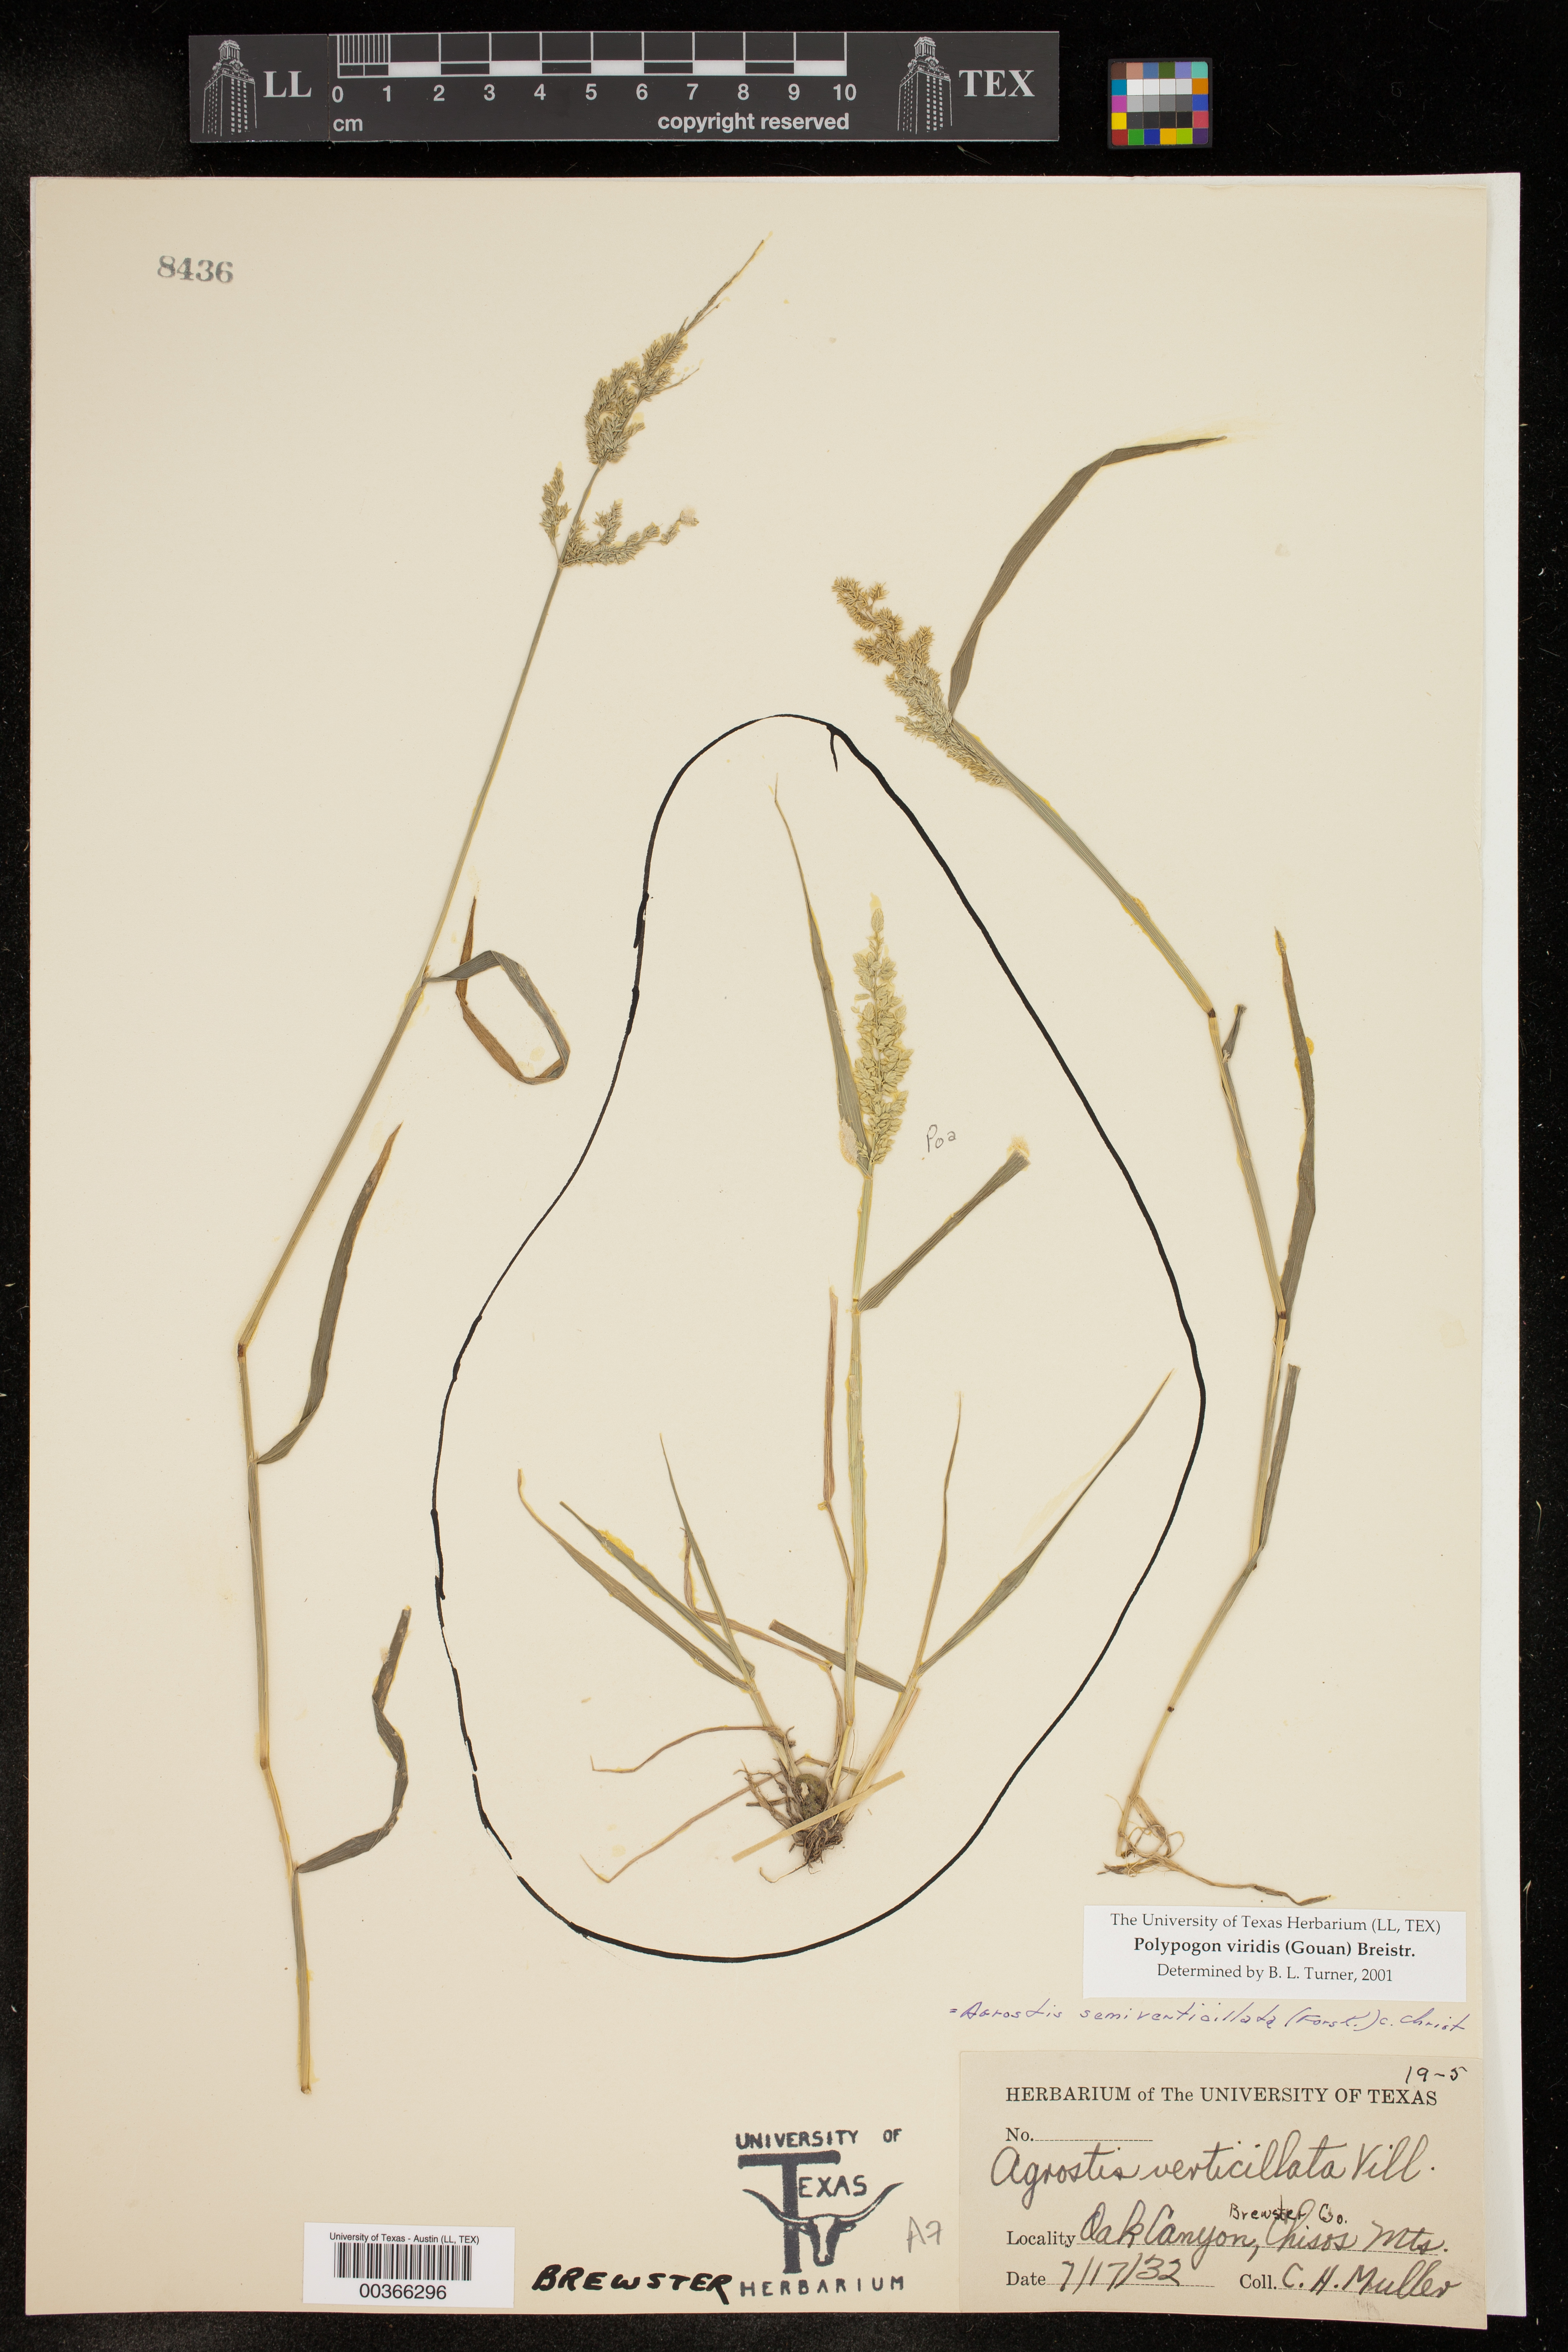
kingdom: Plantae
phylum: Tracheophyta
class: Liliopsida
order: Poales
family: Poaceae
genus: Polypogon
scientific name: Polypogon viridis
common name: Water bent
